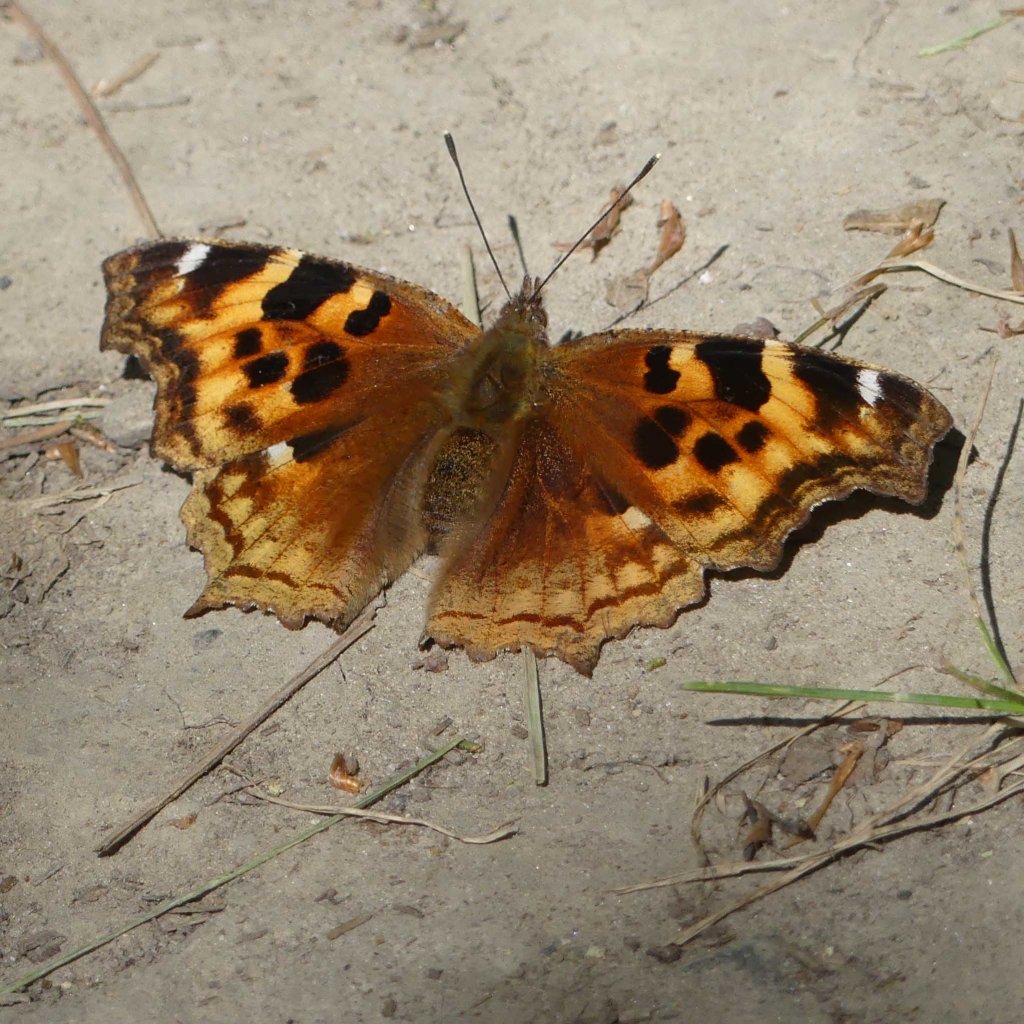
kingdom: Animalia
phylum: Arthropoda
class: Insecta
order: Lepidoptera
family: Nymphalidae
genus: Polygonia
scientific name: Polygonia vaualbum
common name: Compton Tortoiseshell
